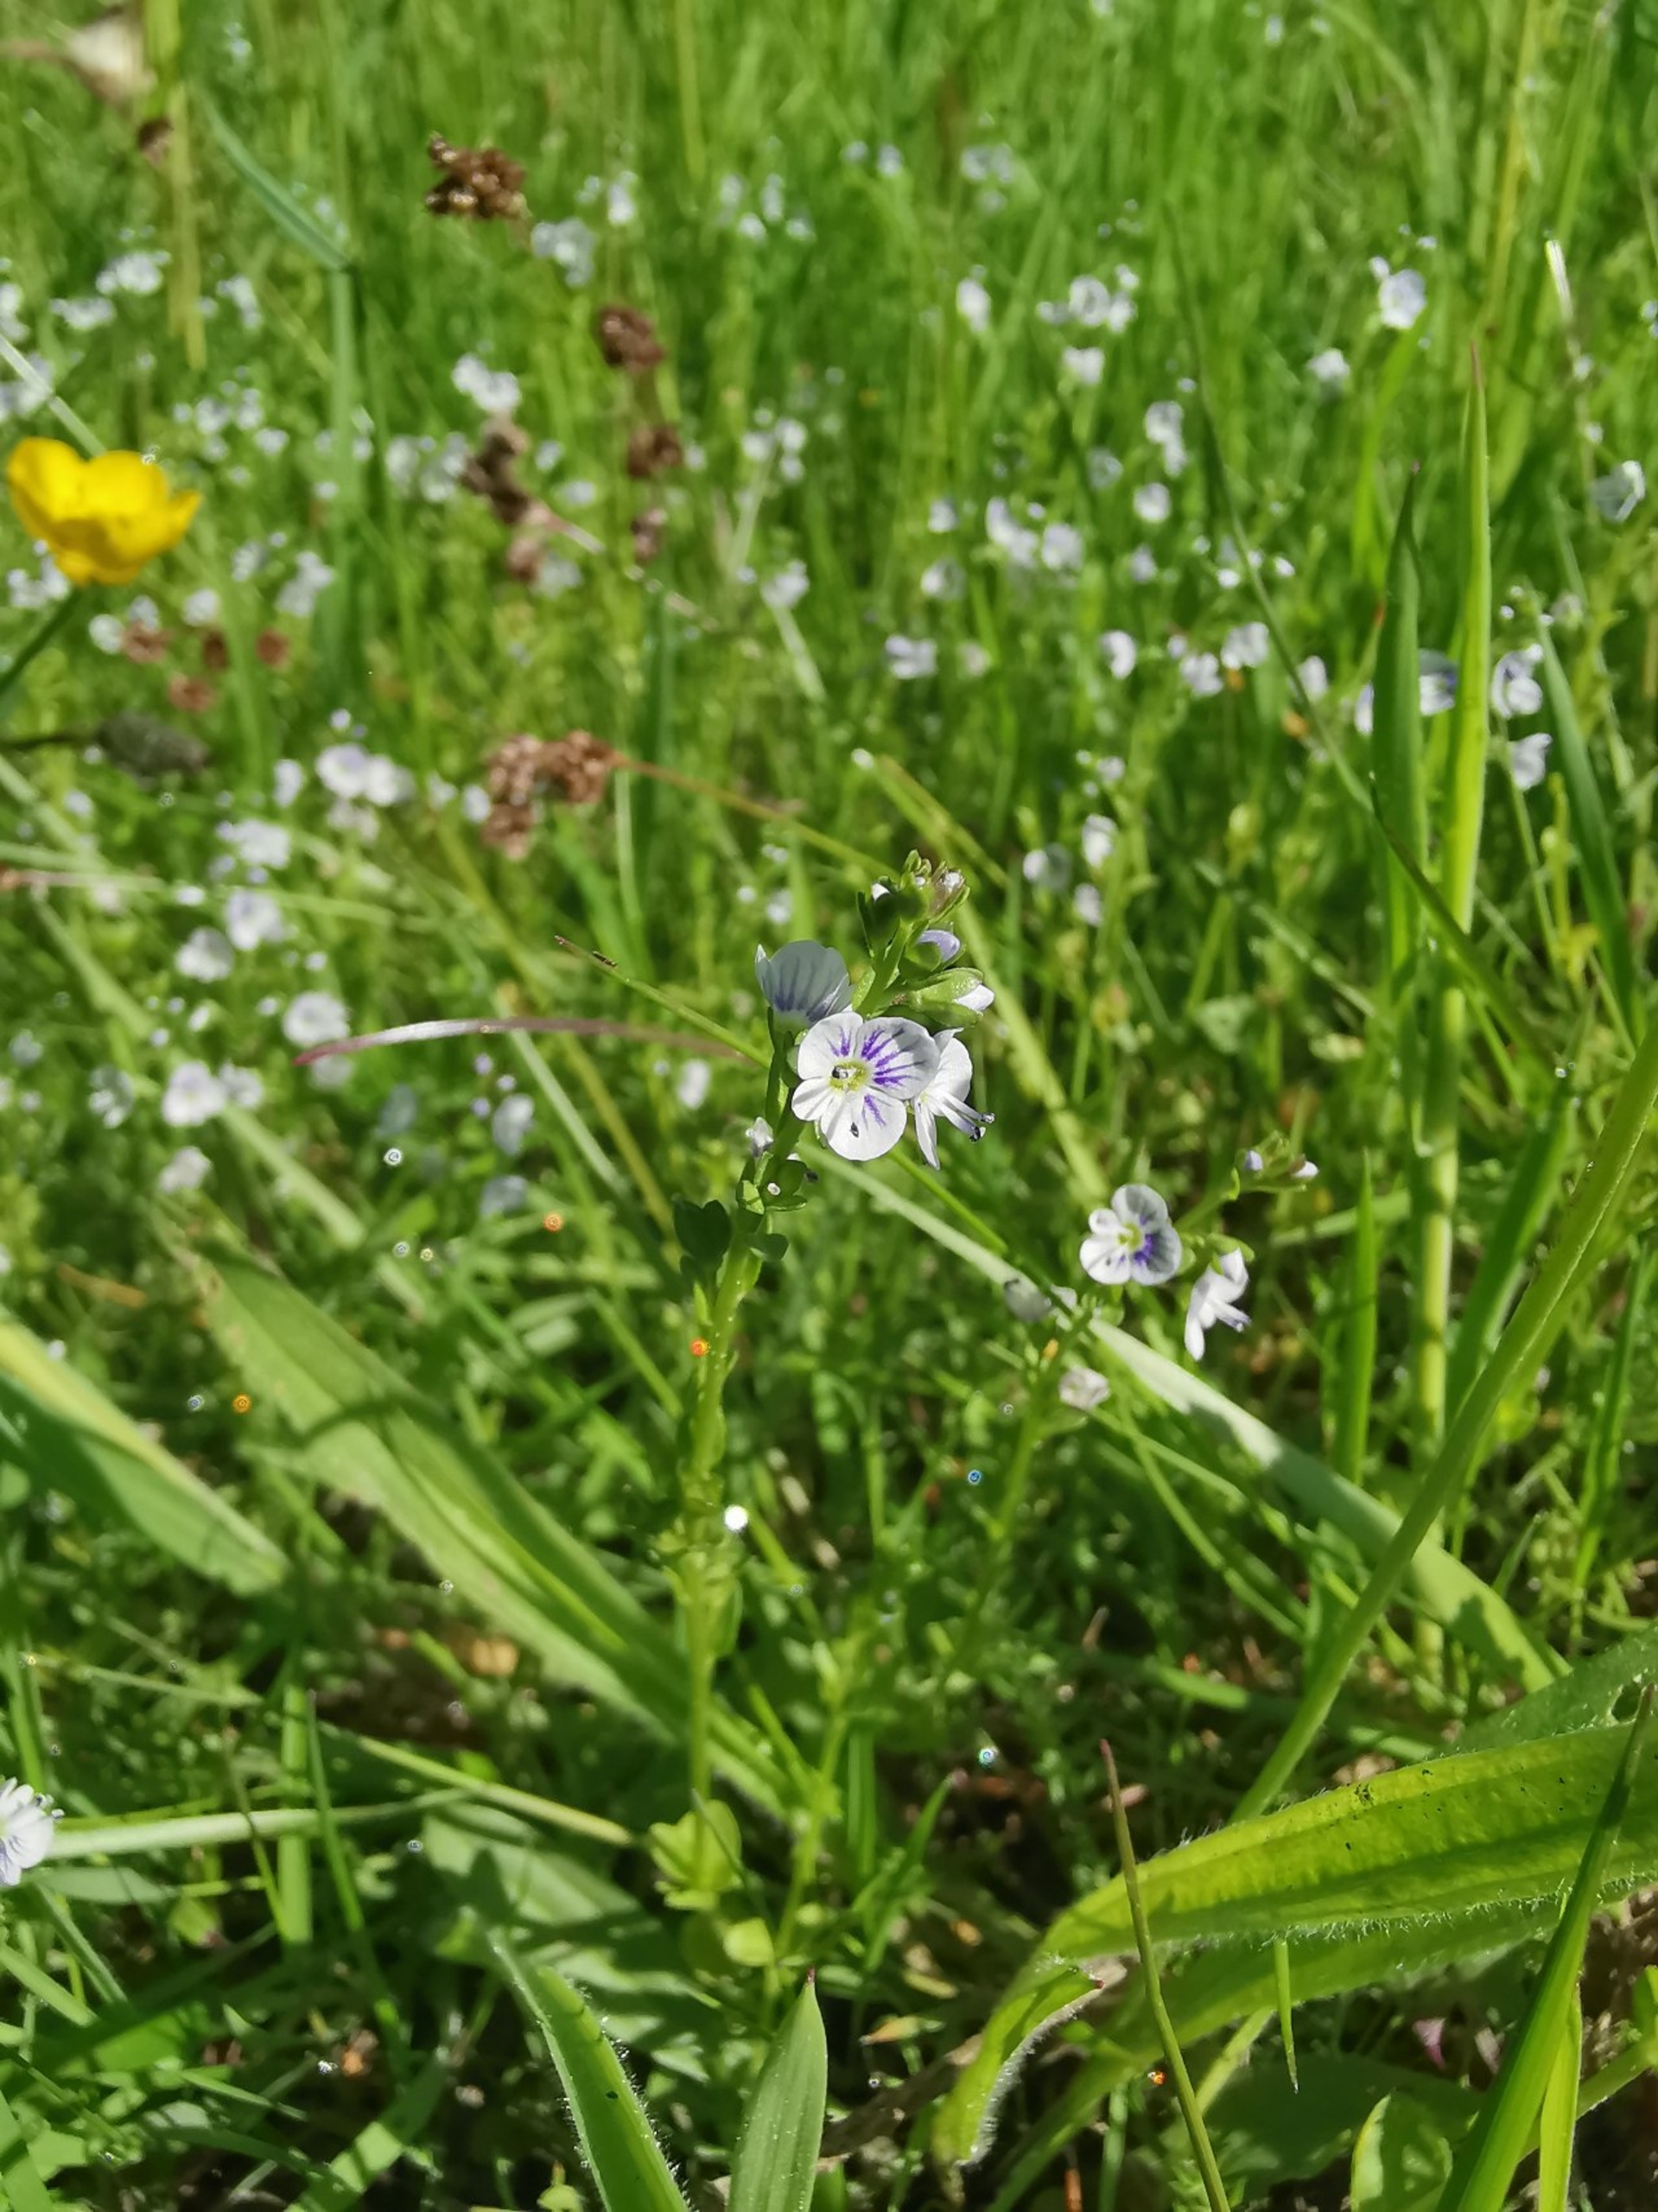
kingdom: Plantae
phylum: Tracheophyta
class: Magnoliopsida
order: Lamiales
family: Plantaginaceae
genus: Veronica
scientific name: Veronica serpyllifolia
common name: Glat ærenpris
